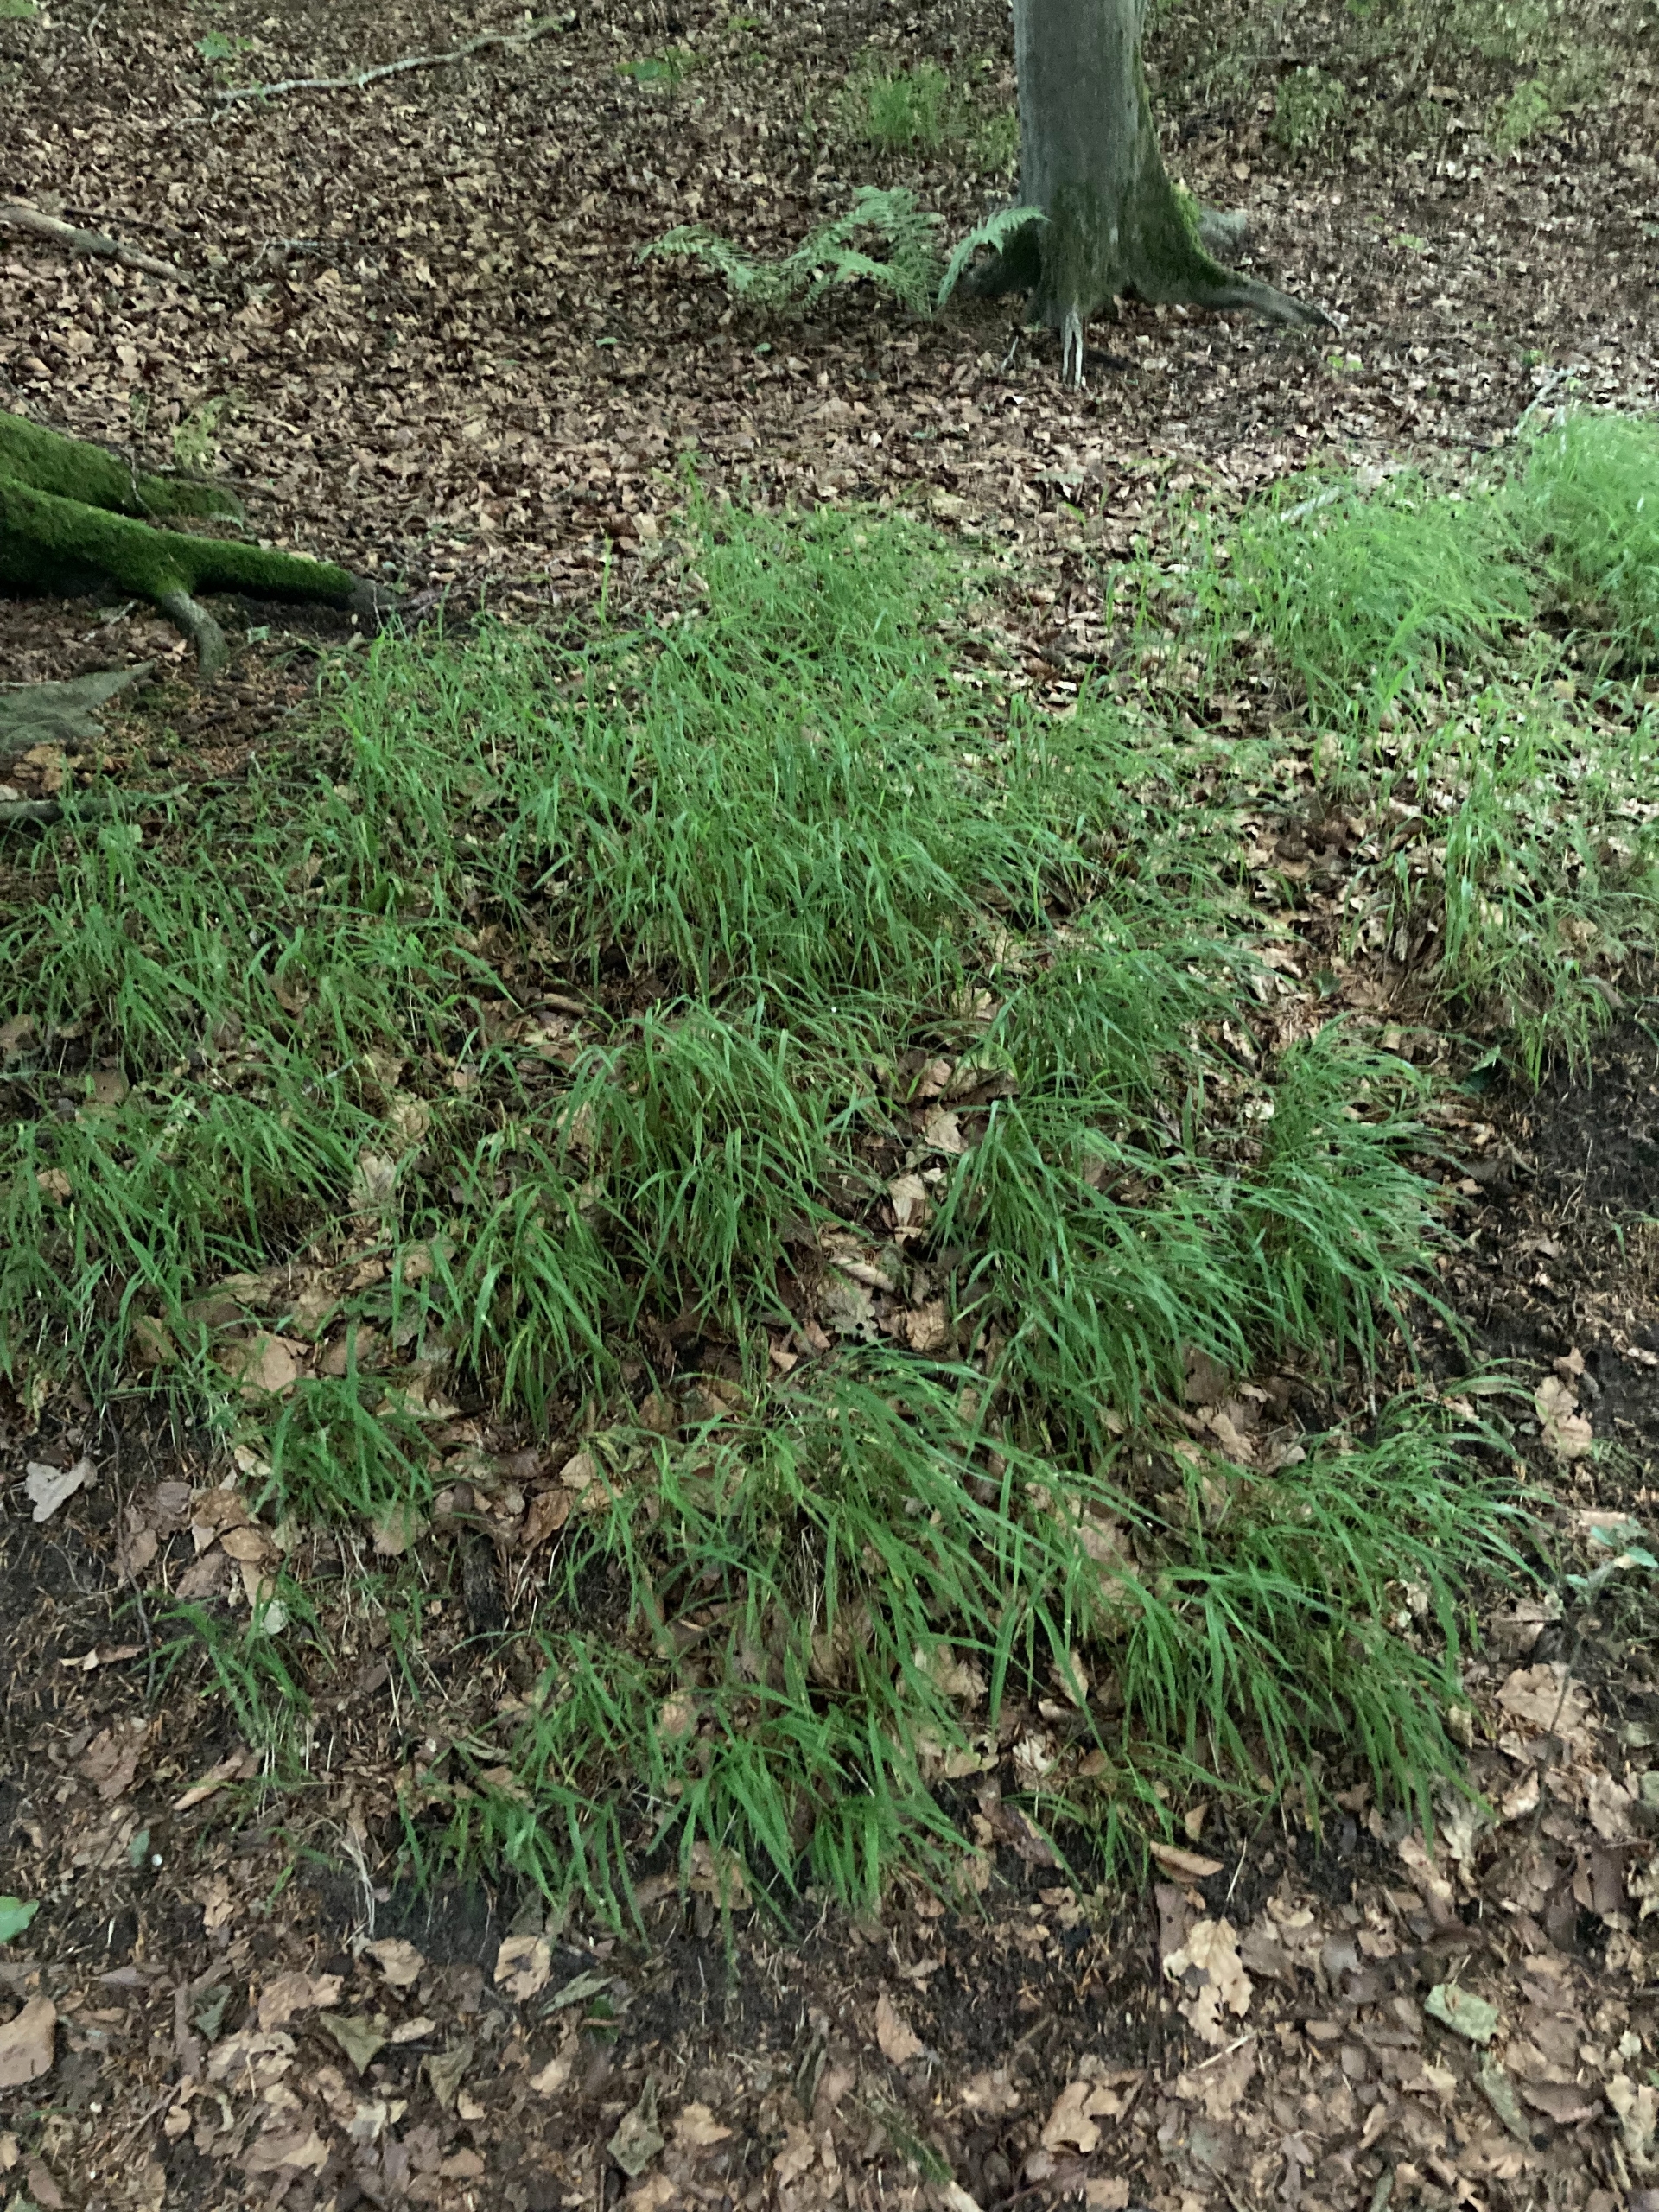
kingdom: Plantae
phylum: Tracheophyta
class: Liliopsida
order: Poales
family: Poaceae
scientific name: Poaceae
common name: Græsfamilien
